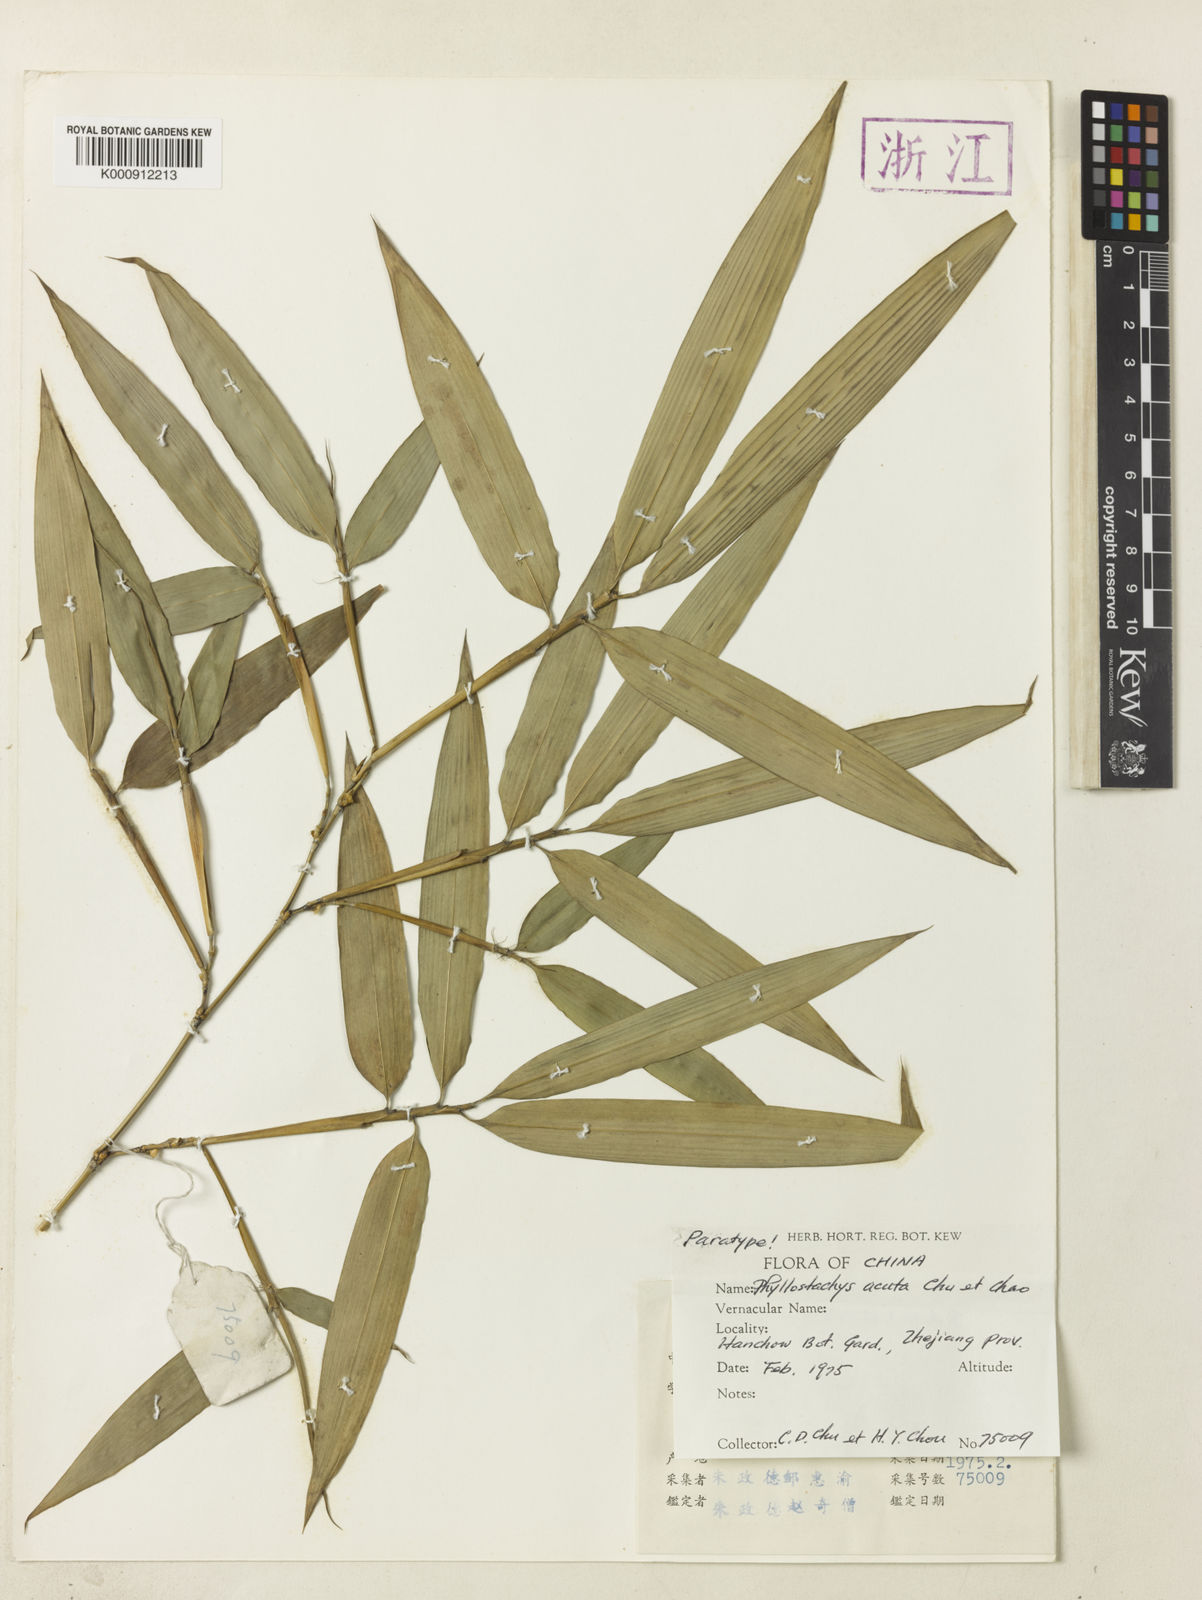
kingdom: Plantae
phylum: Tracheophyta
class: Liliopsida
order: Poales
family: Poaceae
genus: Phyllostachys
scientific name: Phyllostachys acuta
